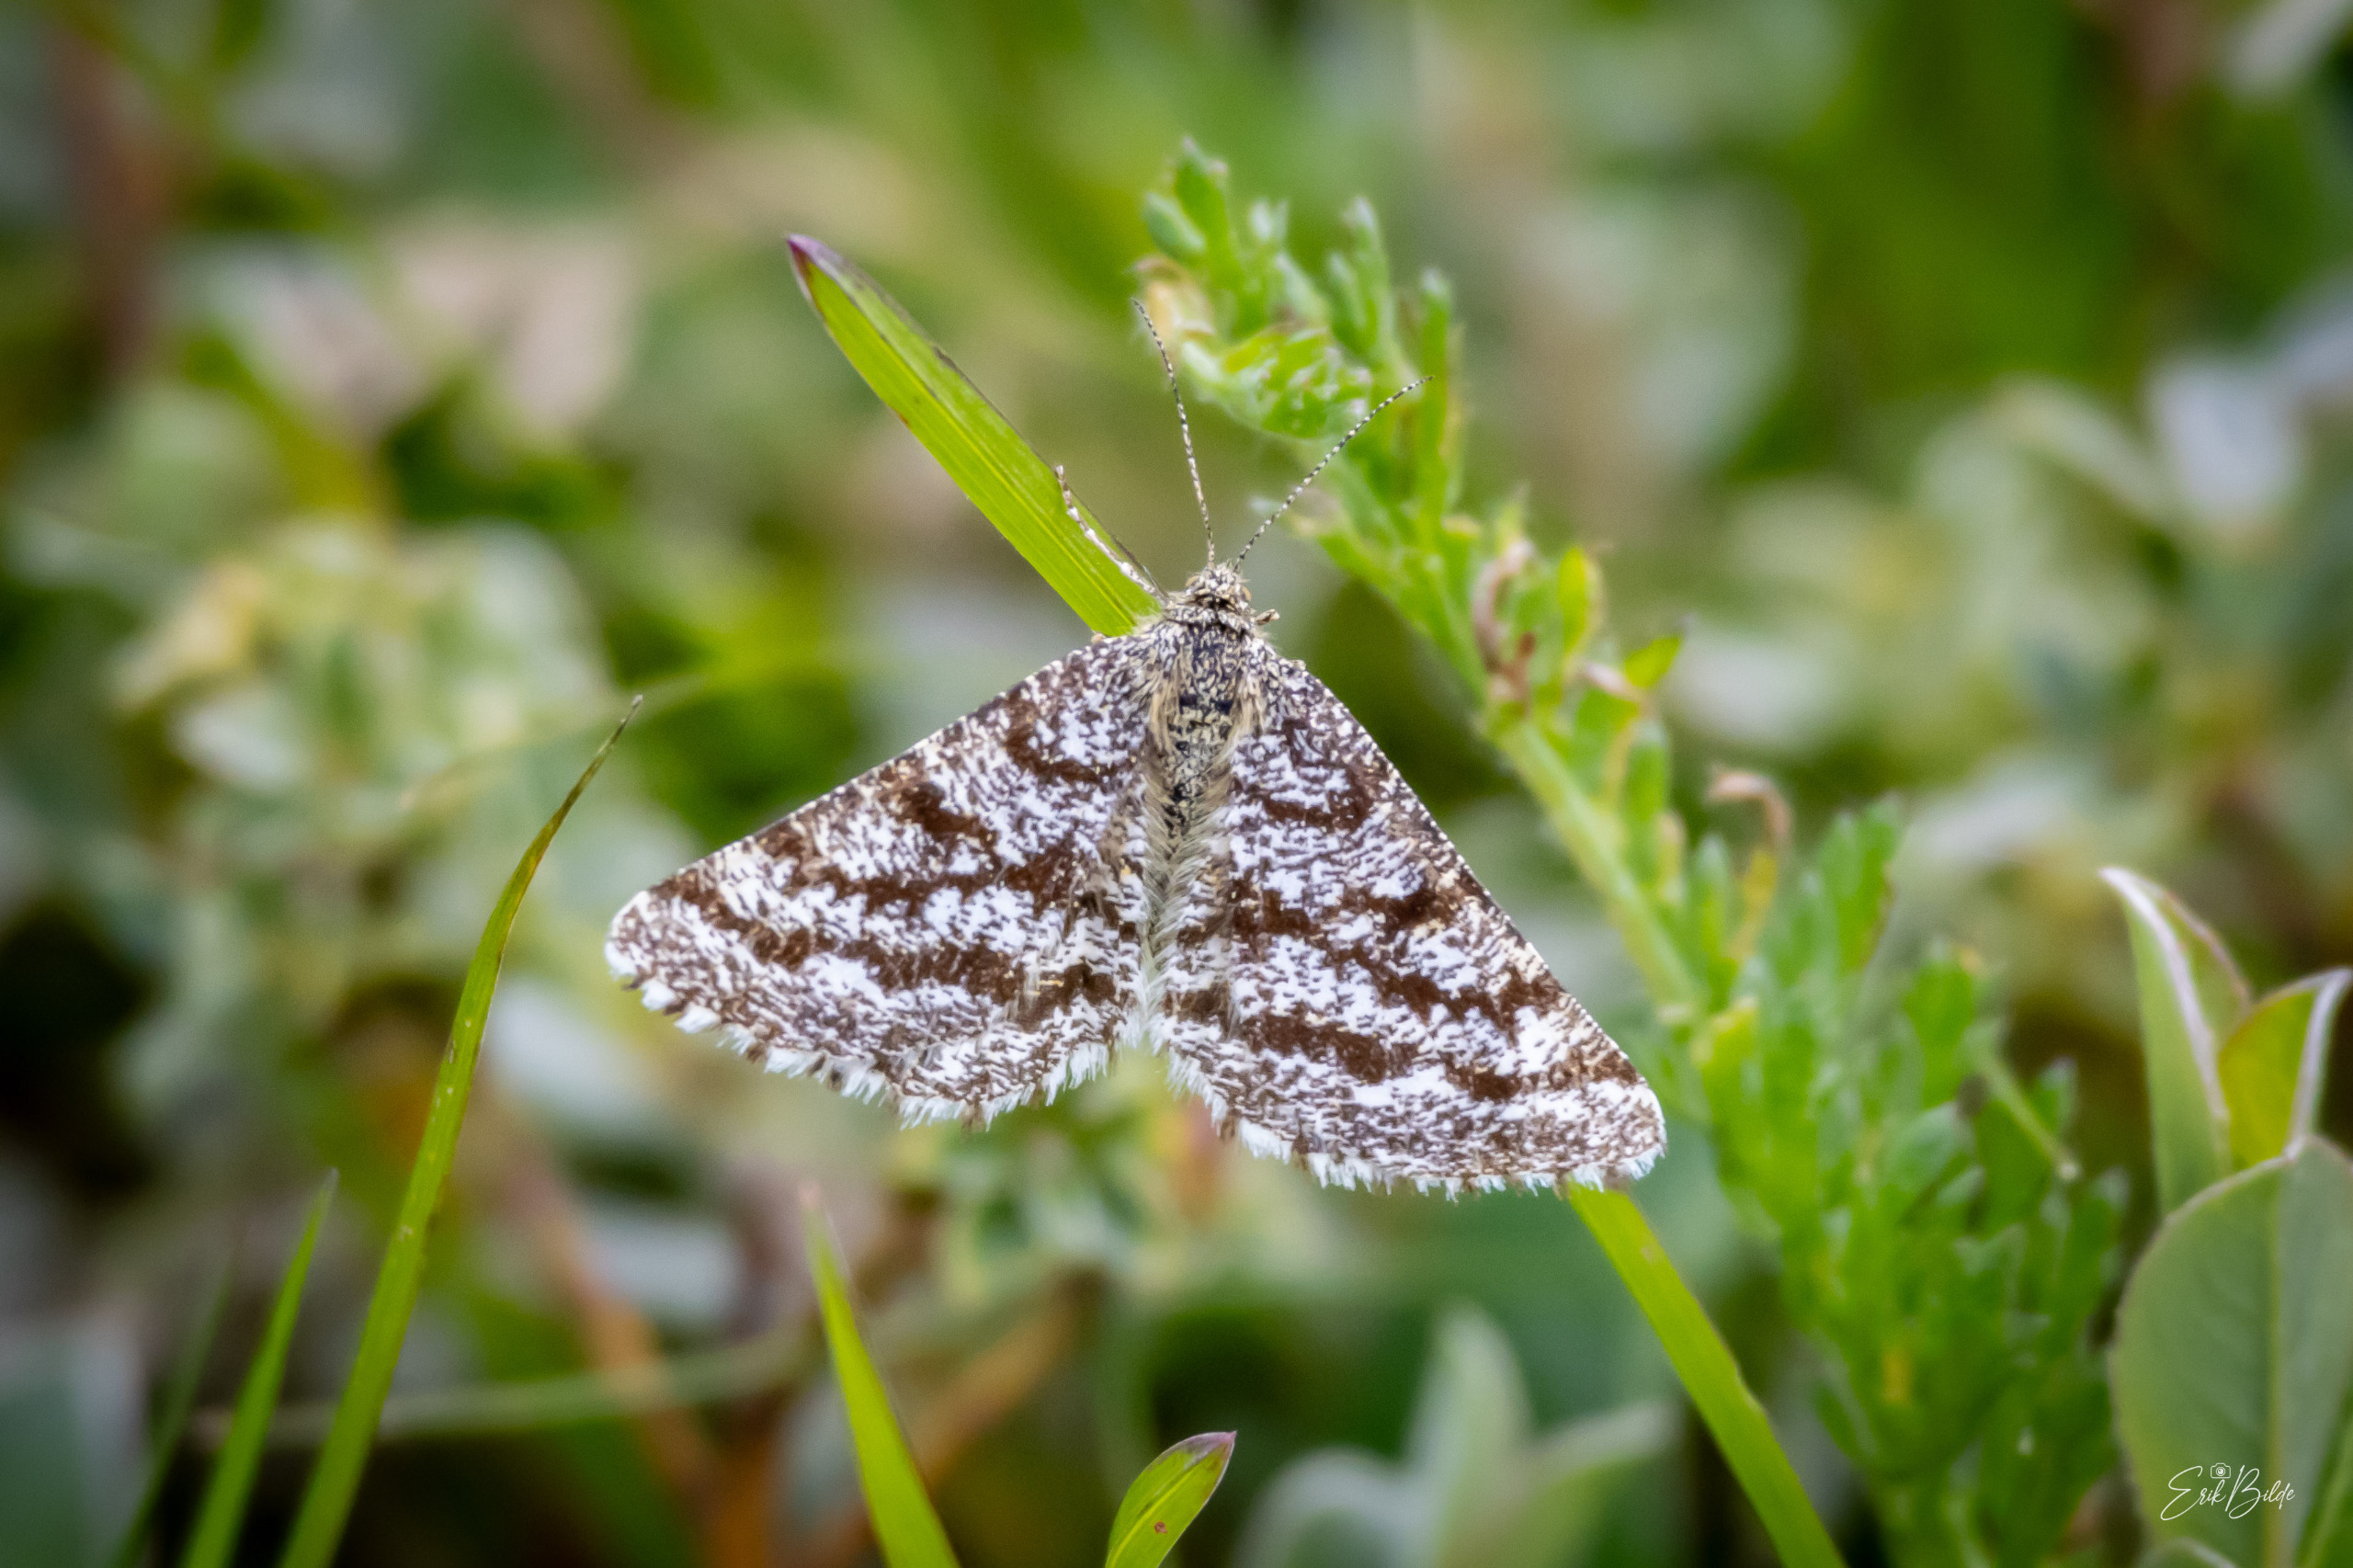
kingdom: Animalia
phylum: Arthropoda
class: Insecta
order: Lepidoptera
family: Geometridae
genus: Ematurga
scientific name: Ematurga atomaria
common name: Lyngmåler
